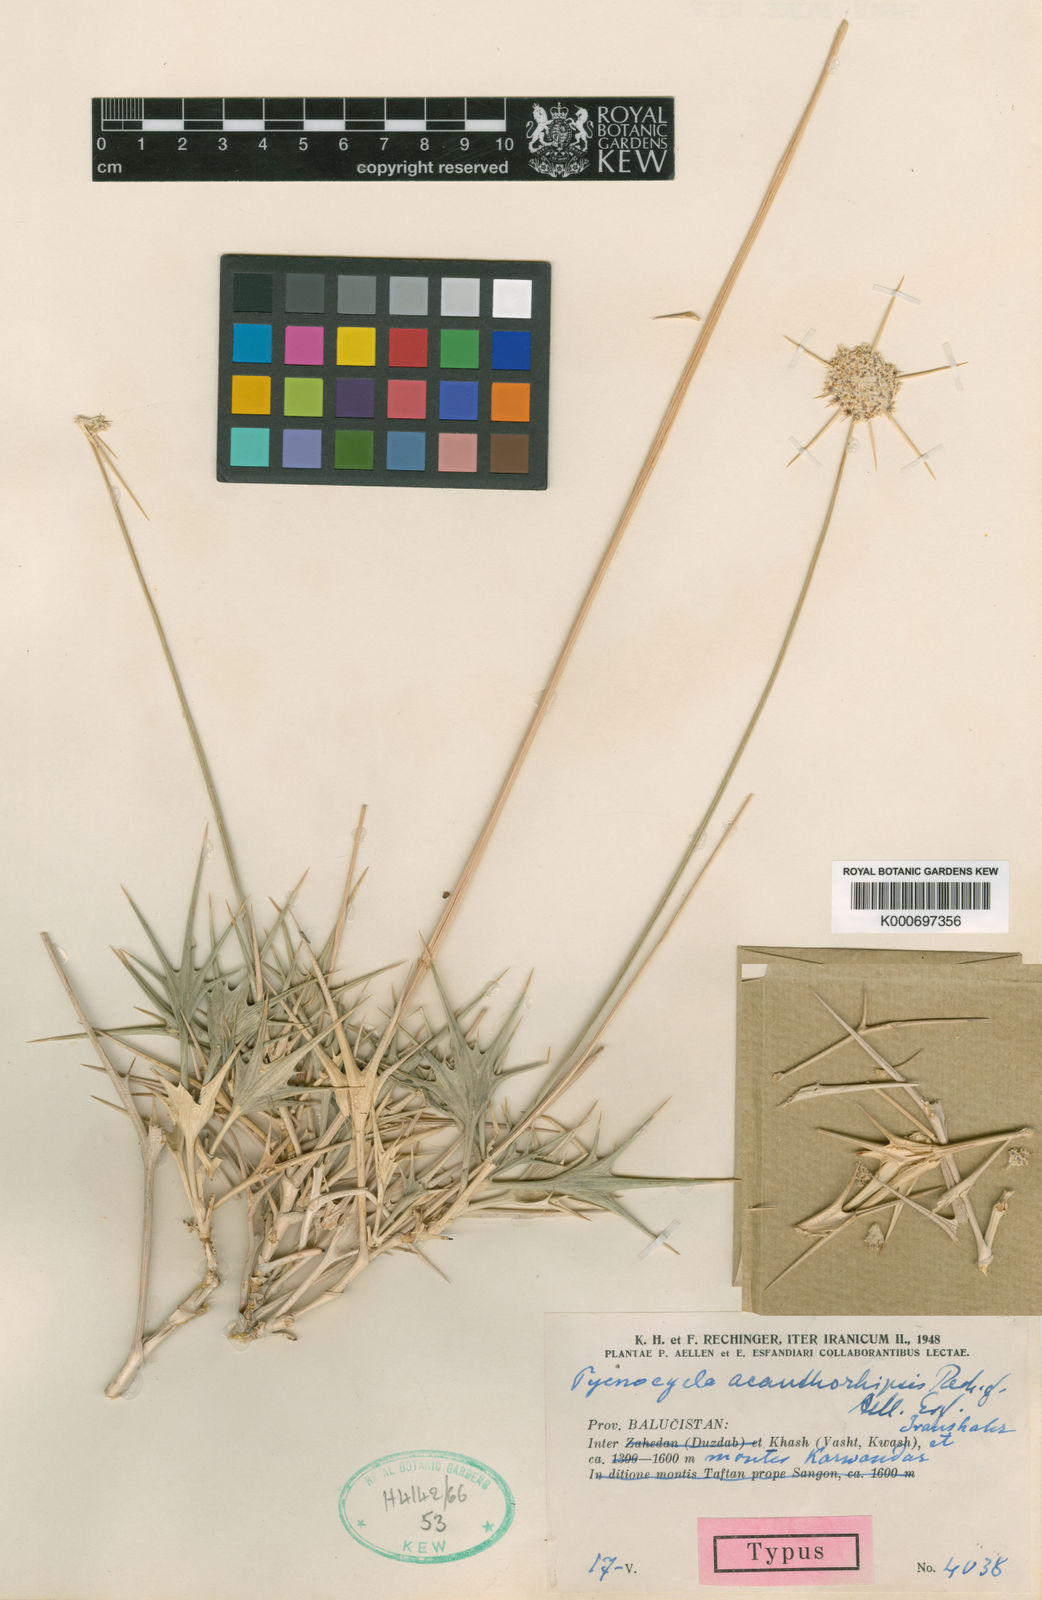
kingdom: Plantae
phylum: Tracheophyta
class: Magnoliopsida
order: Apiales
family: Apiaceae
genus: Pycnocycla
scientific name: Pycnocycla acanthorhipsis
